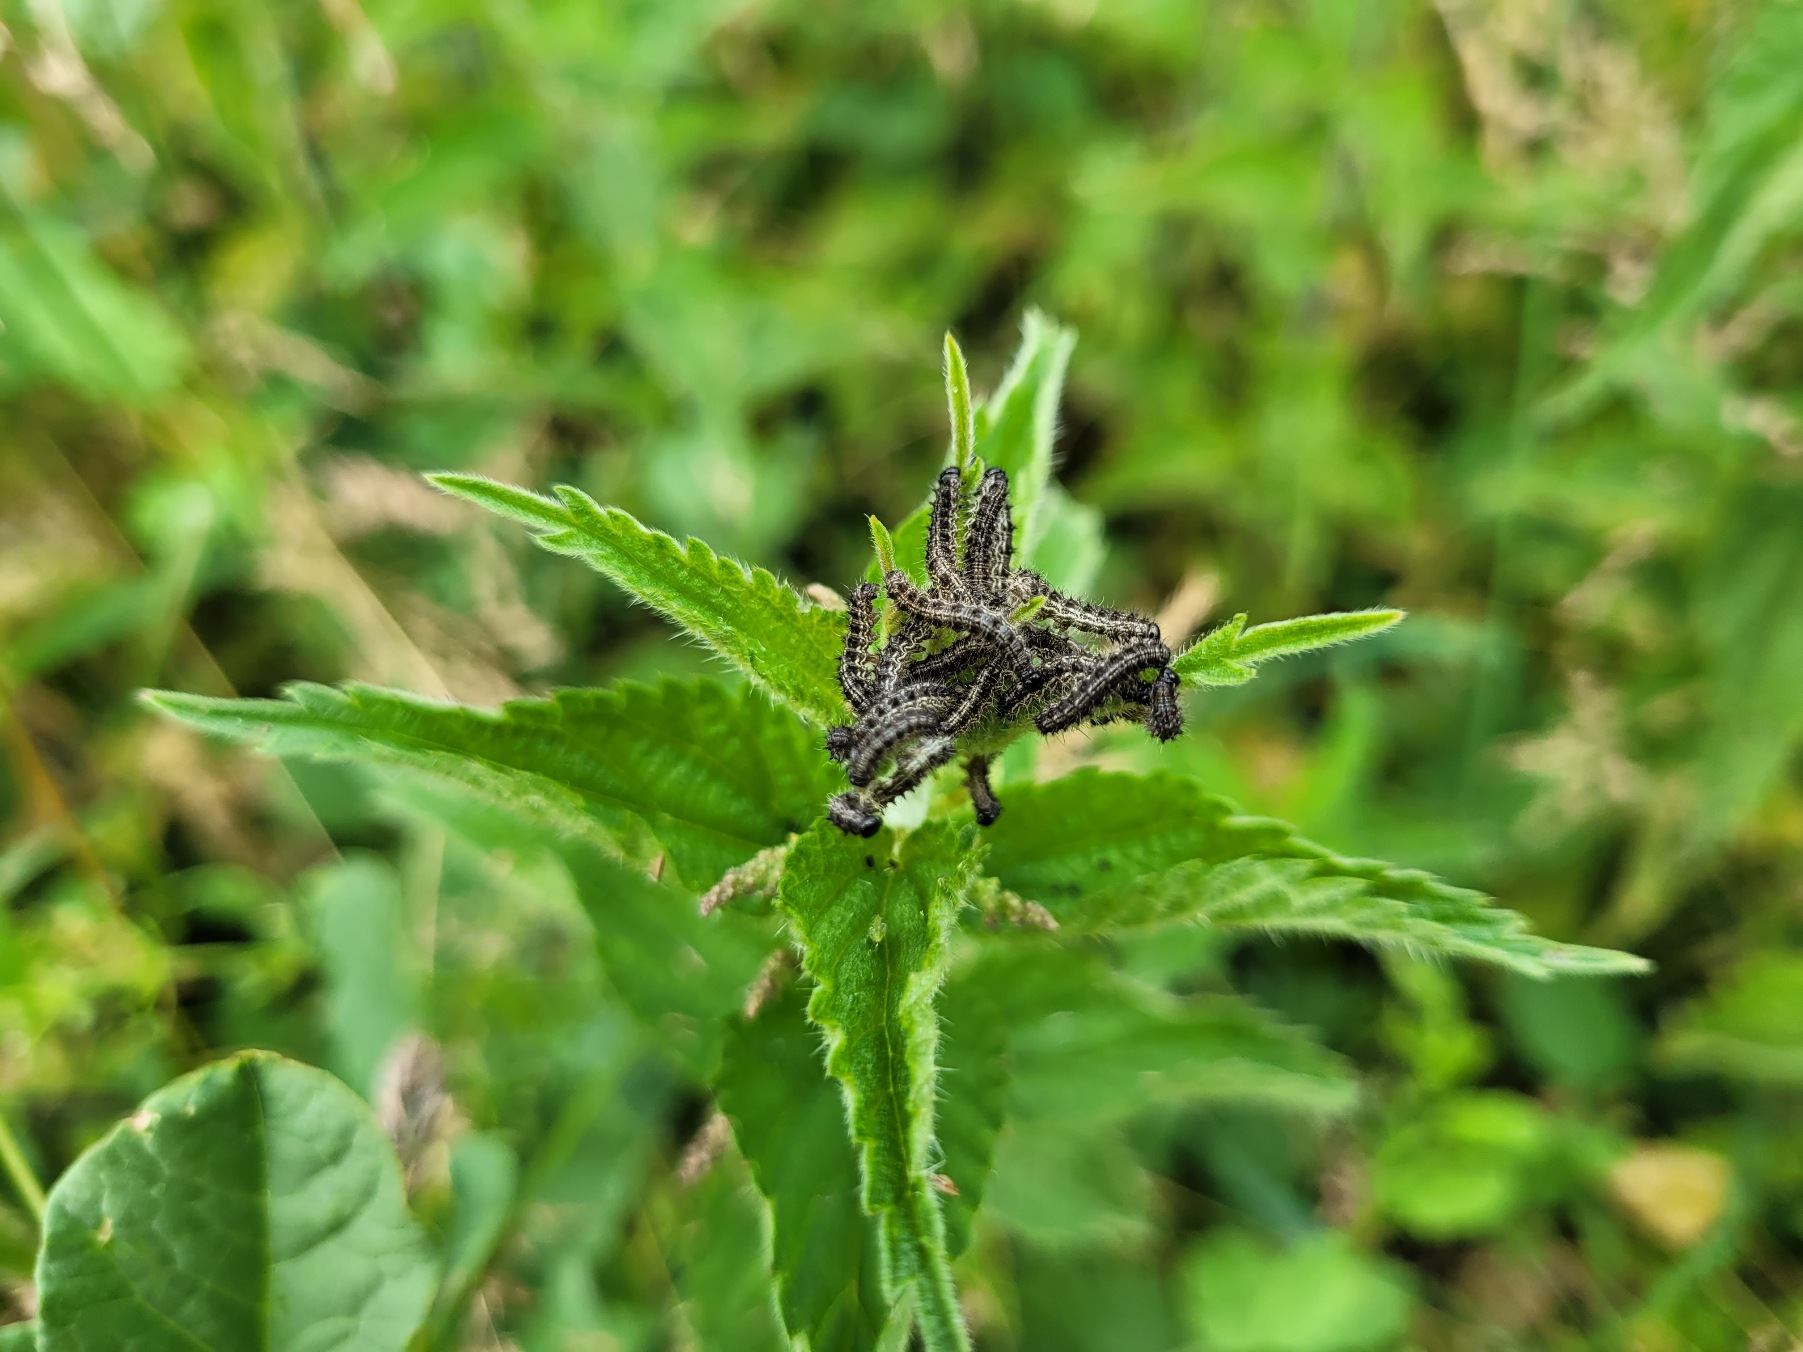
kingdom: Animalia
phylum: Arthropoda
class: Insecta
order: Lepidoptera
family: Nymphalidae
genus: Aglais
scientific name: Aglais urticae
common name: Nældens takvinge
